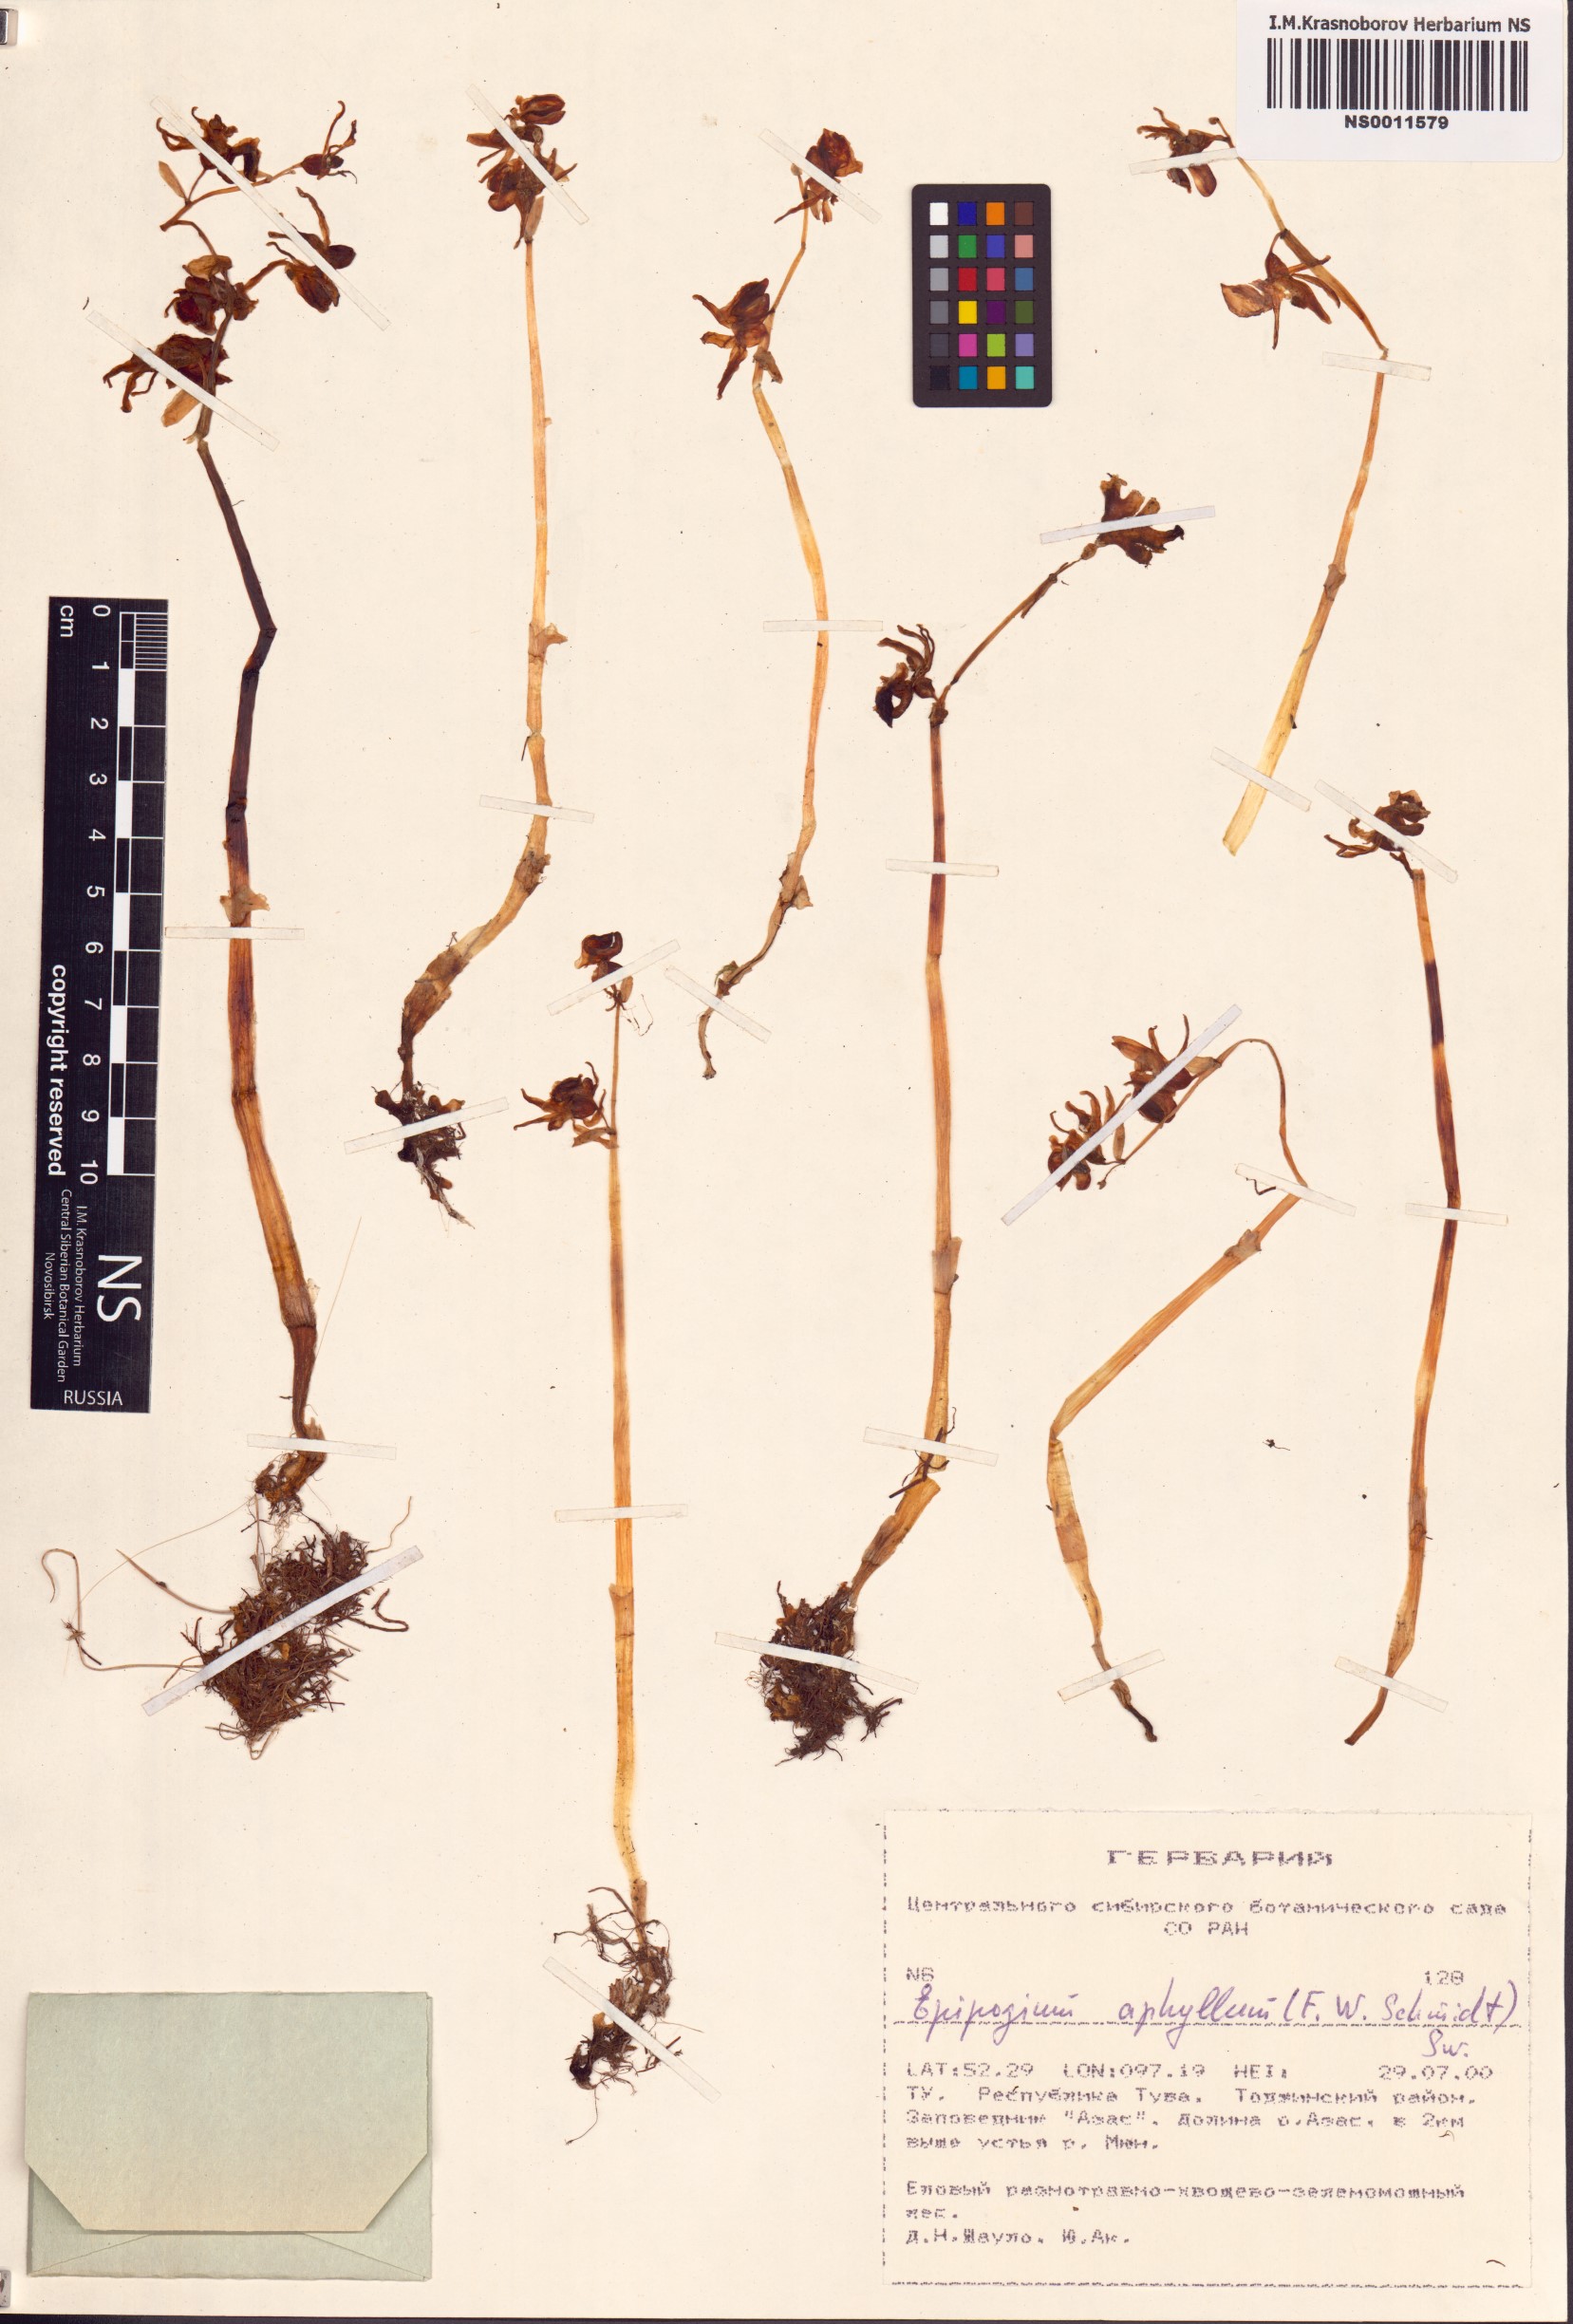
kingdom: Plantae
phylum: Tracheophyta
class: Liliopsida
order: Asparagales
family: Orchidaceae
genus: Epipogium
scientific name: Epipogium aphyllum
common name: Ghost orchid
